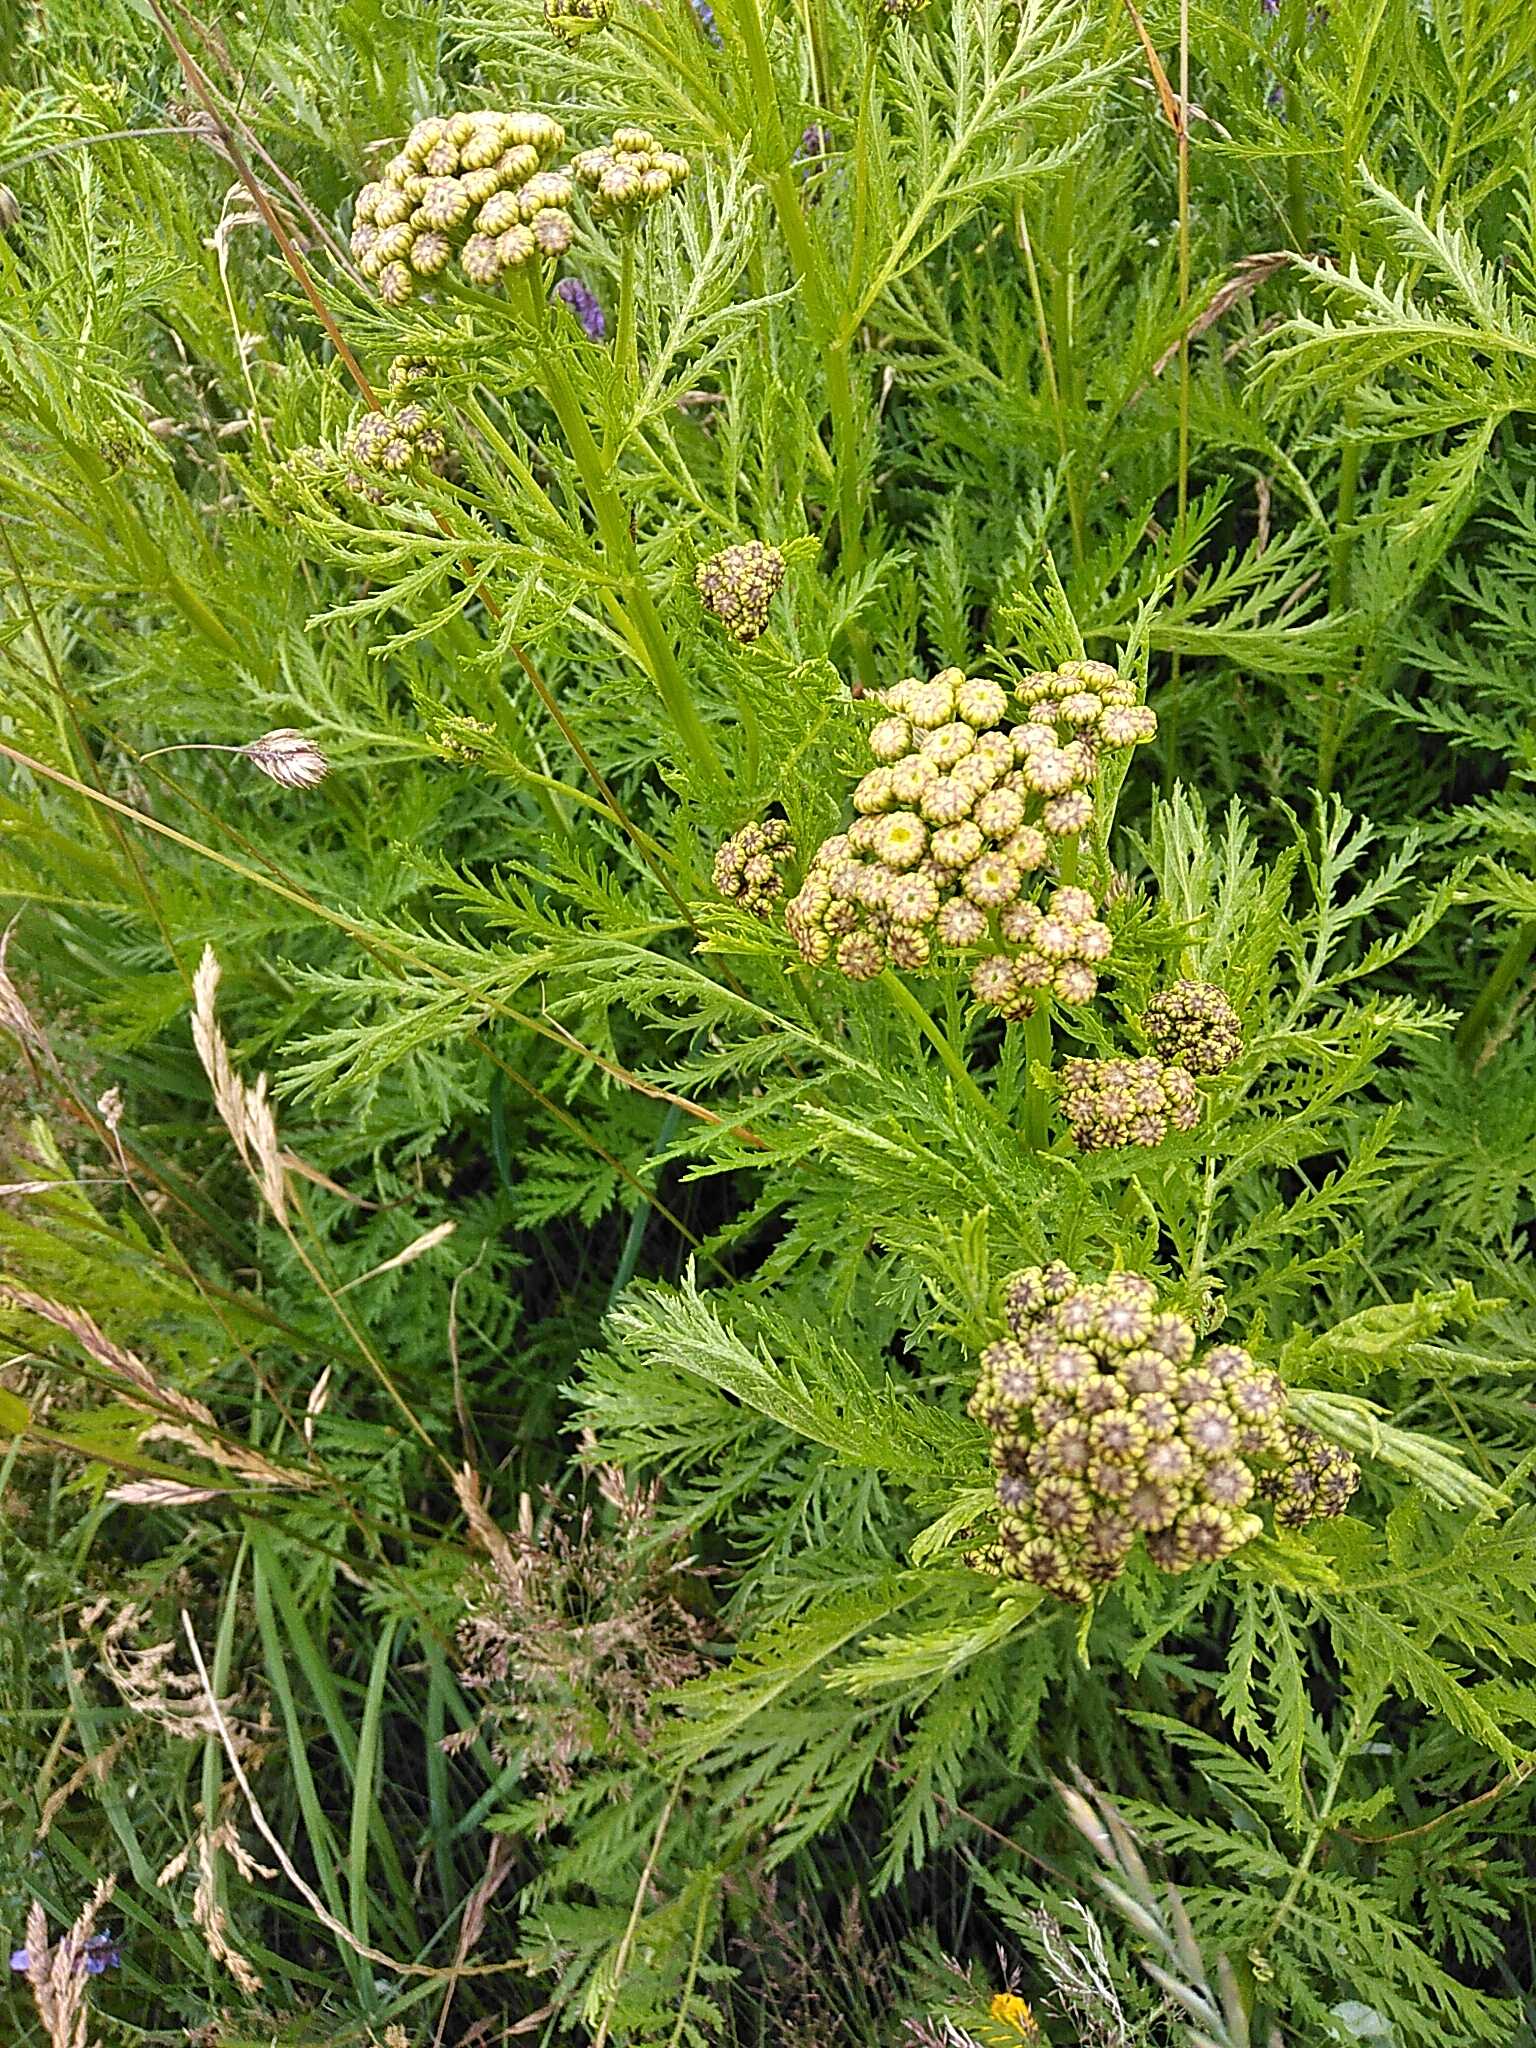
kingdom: Plantae
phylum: Tracheophyta
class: Magnoliopsida
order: Asterales
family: Asteraceae
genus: Tanacetum
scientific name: Tanacetum vulgare
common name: Rejnfan
